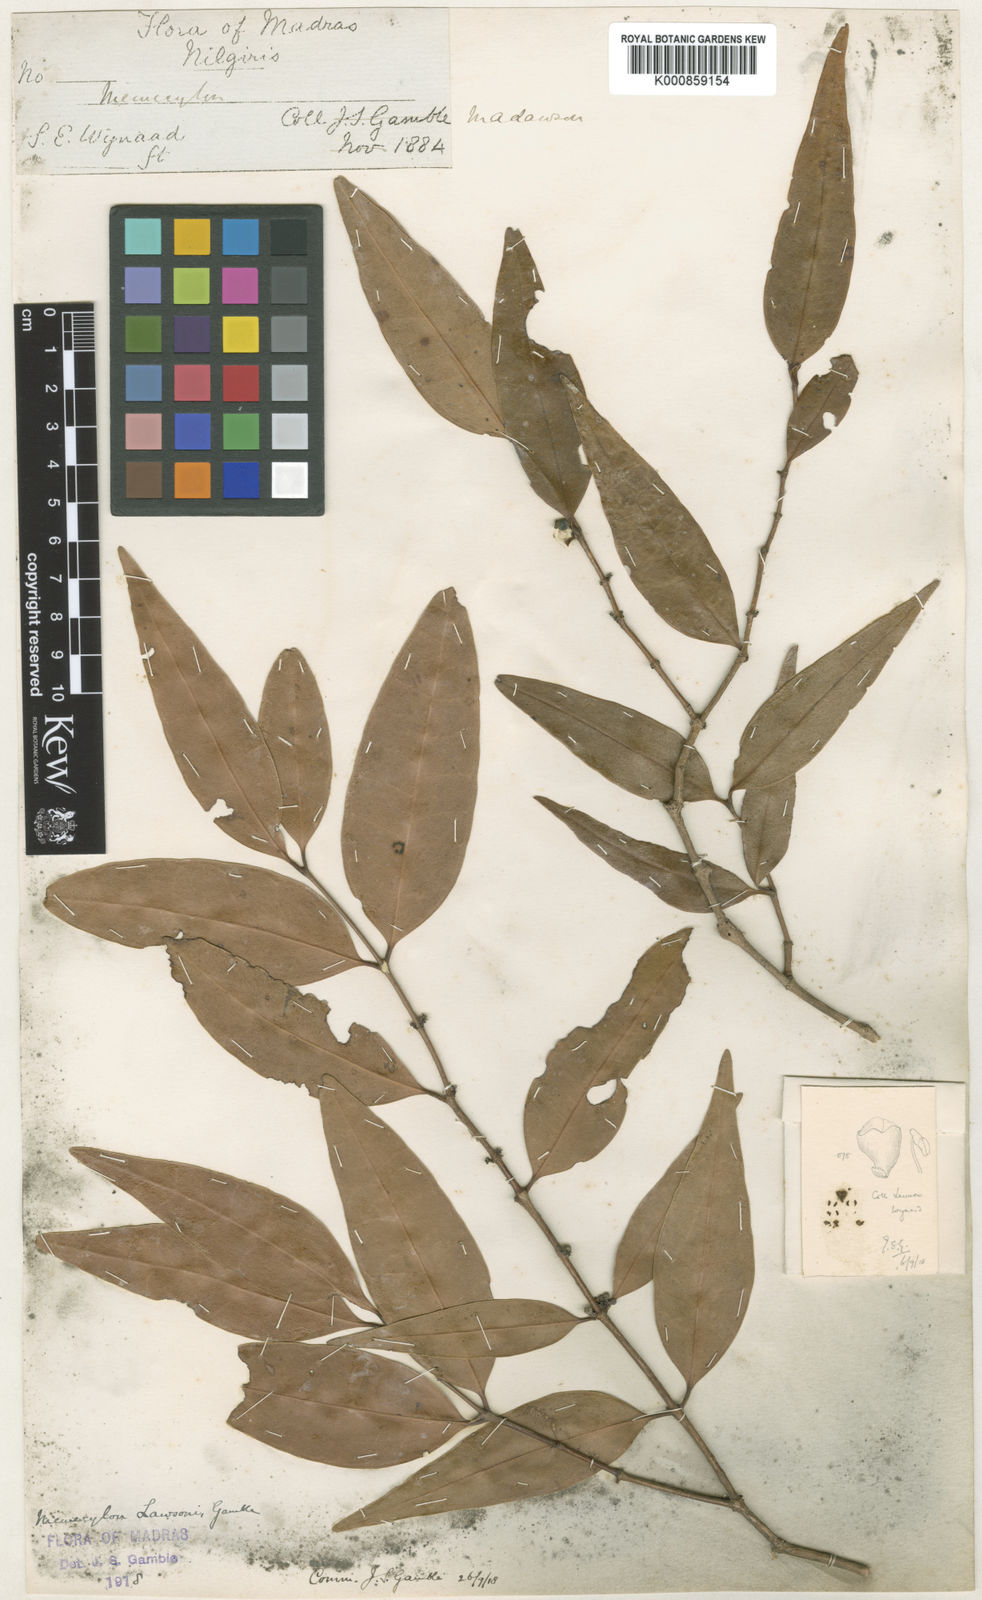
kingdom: Plantae
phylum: Tracheophyta
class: Magnoliopsida
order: Myrtales
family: Melastomataceae
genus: Memecylon
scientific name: Memecylon lawsonii
